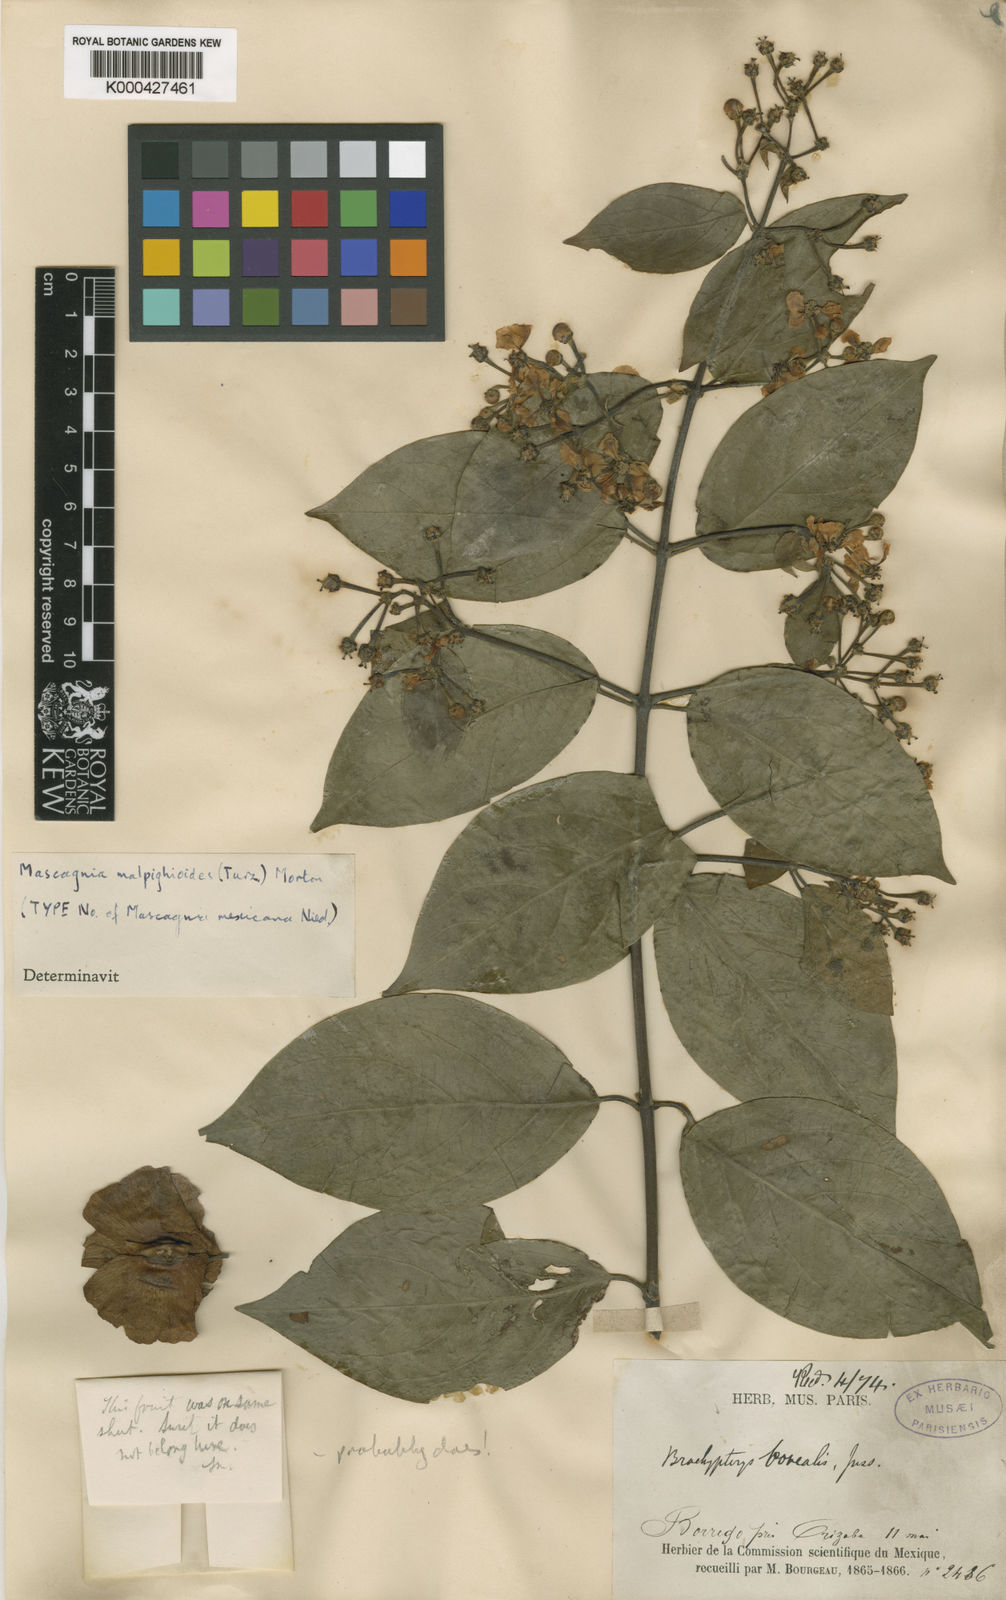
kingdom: Plantae
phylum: Tracheophyta
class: Magnoliopsida
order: Malpighiales
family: Malpighiaceae
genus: Callaeum
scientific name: Callaeum malpighioides
